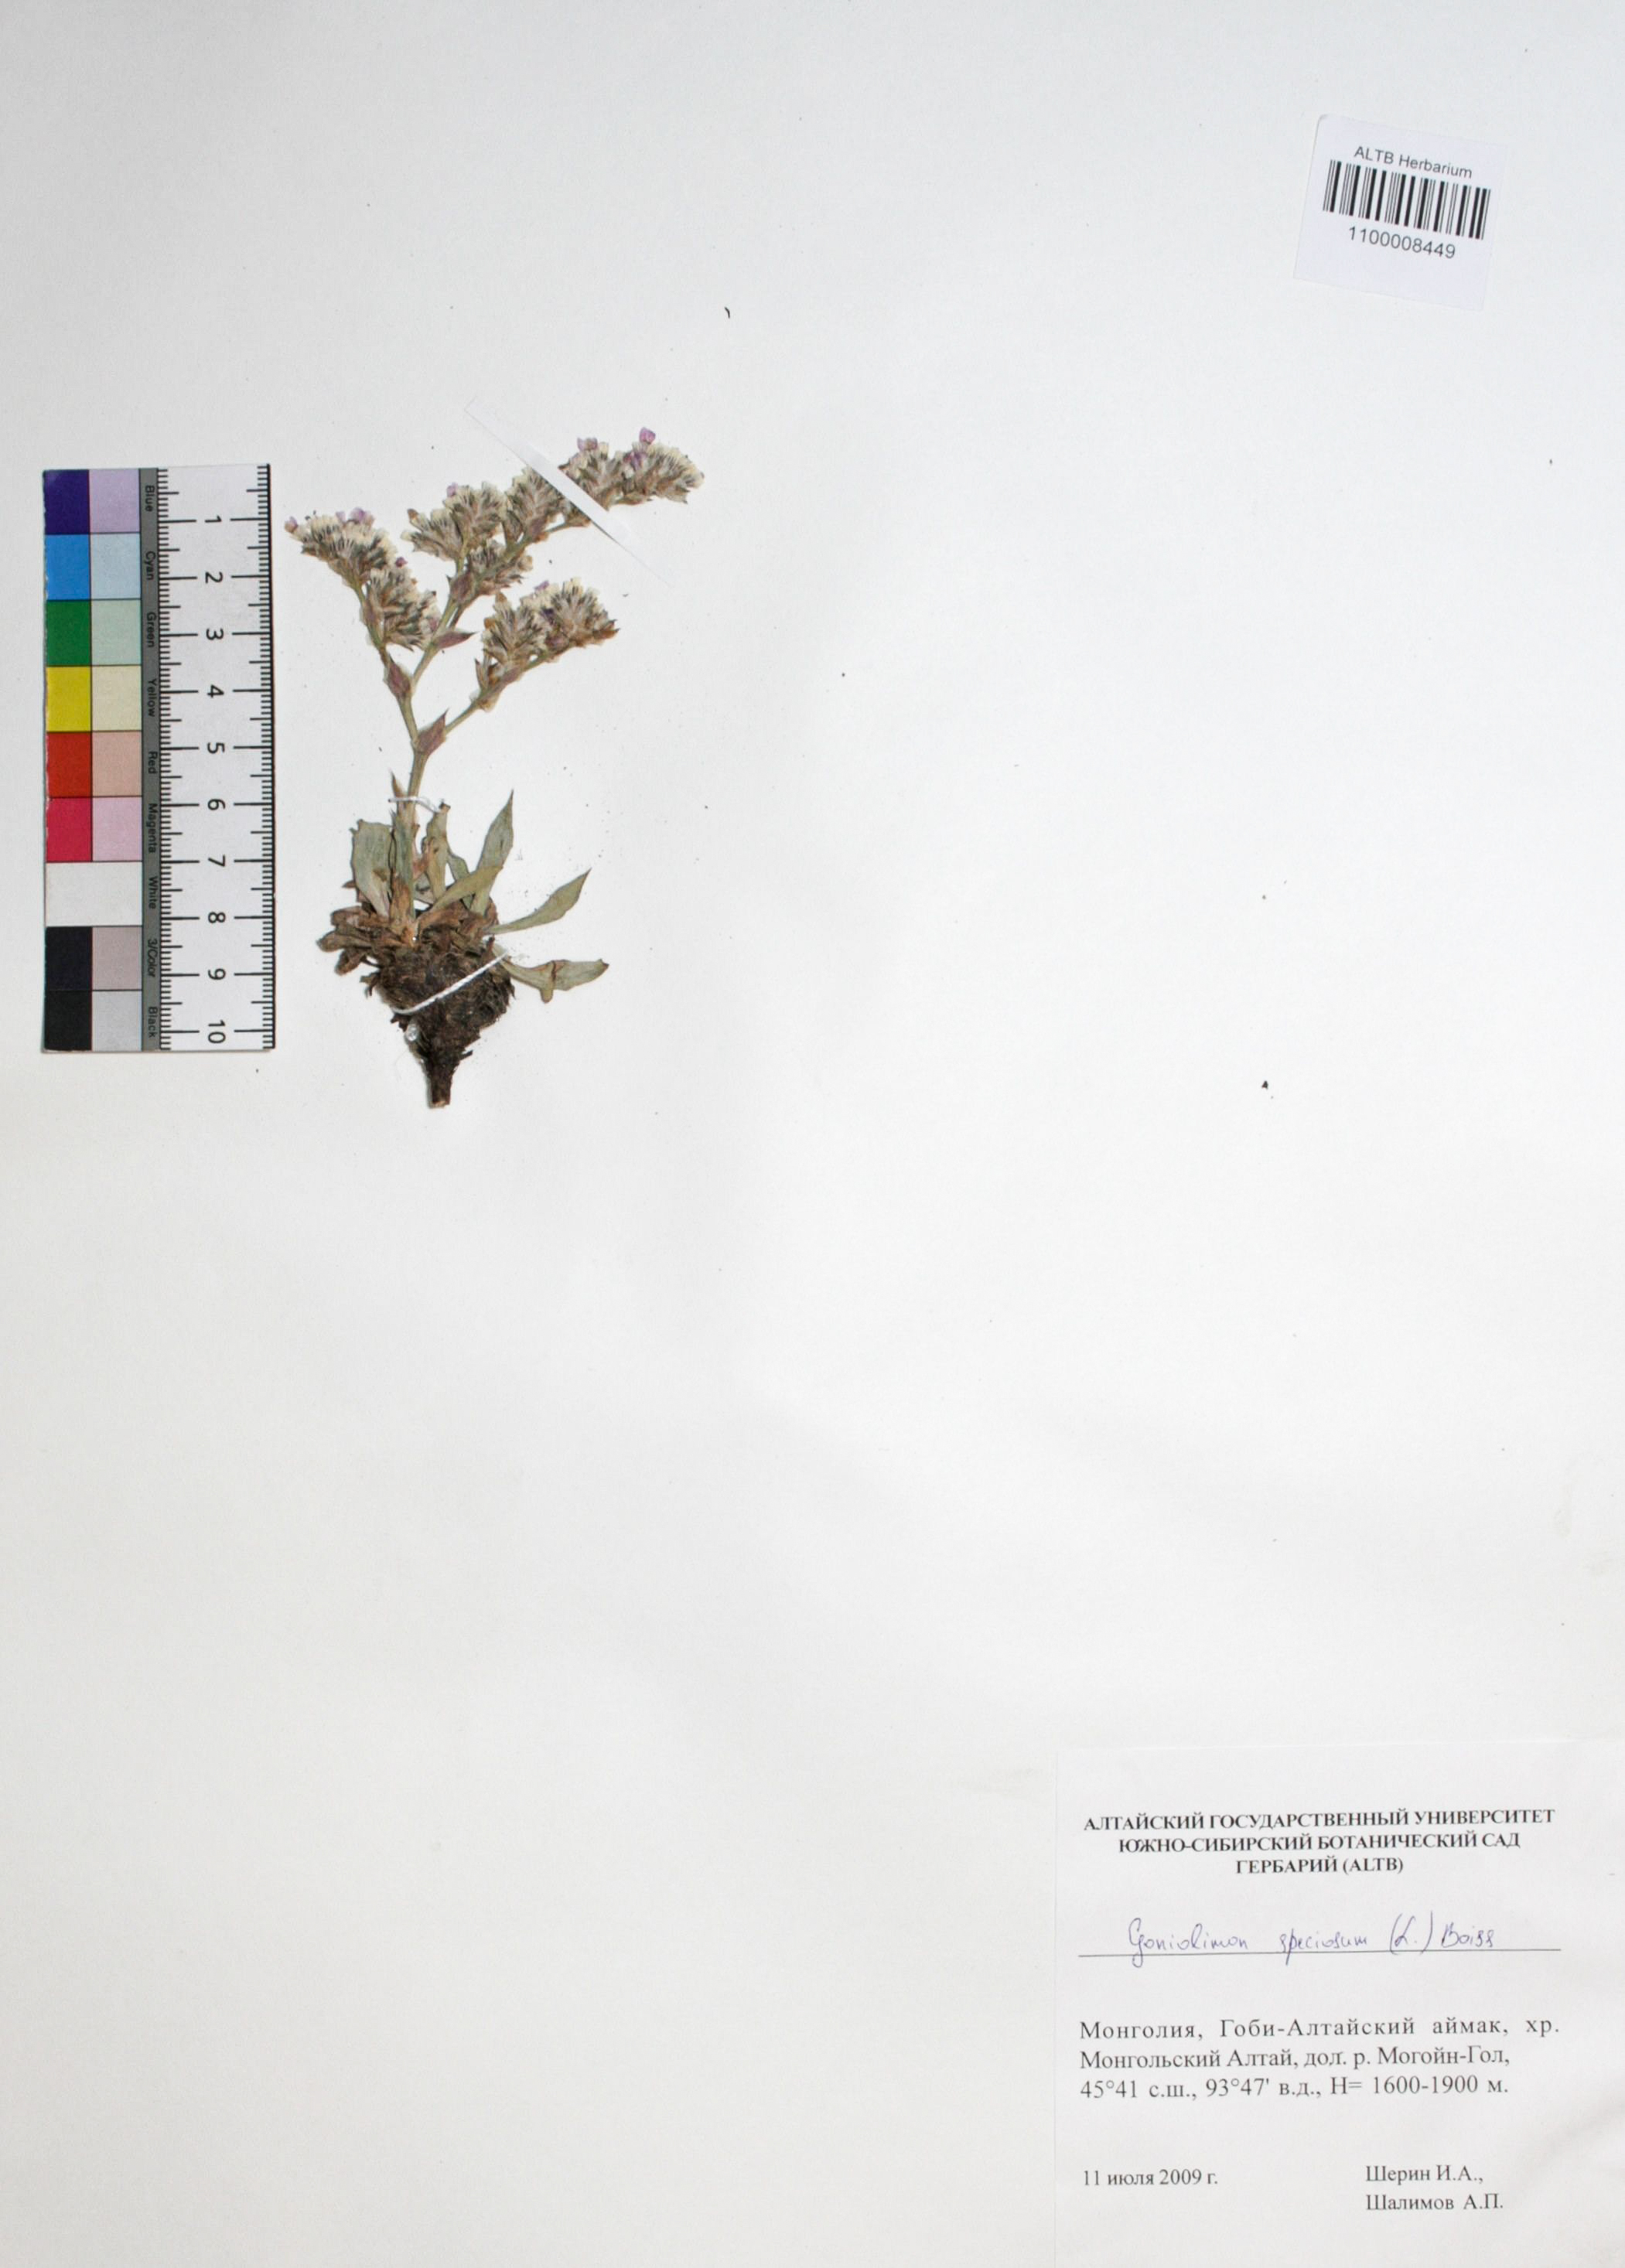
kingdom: Plantae
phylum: Tracheophyta
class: Magnoliopsida
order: Caryophyllales
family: Plumbaginaceae
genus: Goniolimon
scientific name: Goniolimon speciosum
